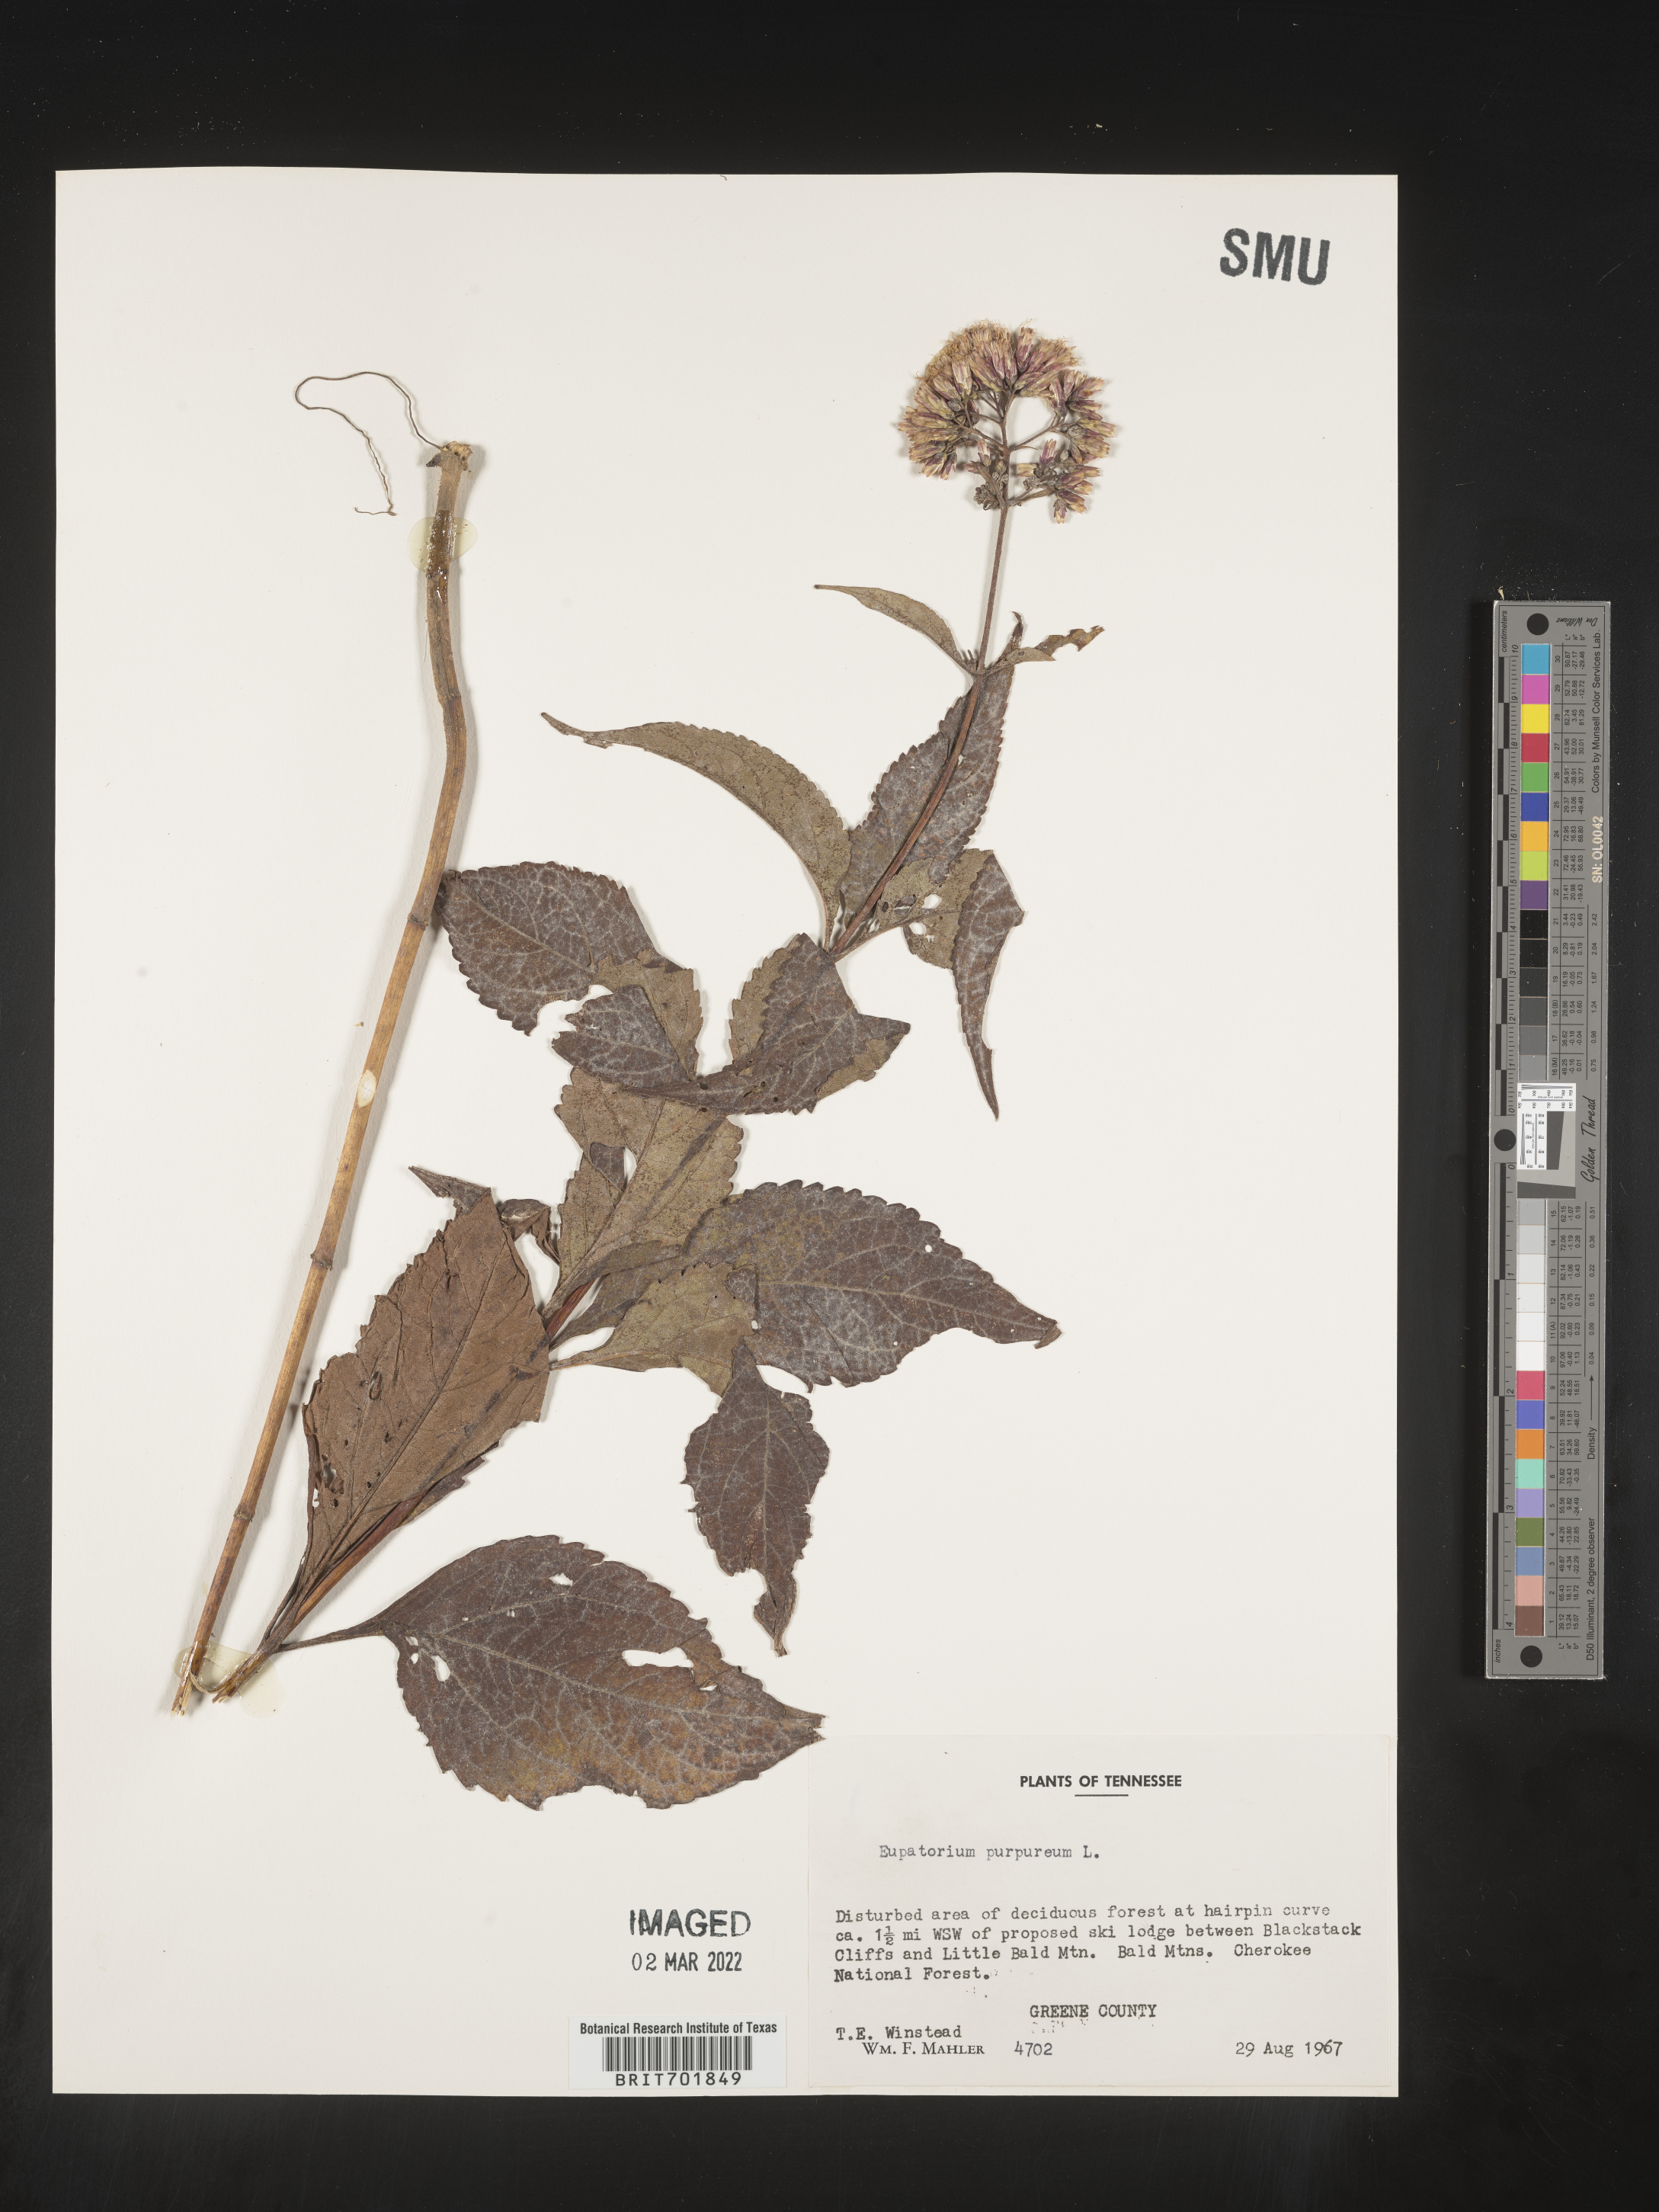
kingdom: Plantae
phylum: Tracheophyta
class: Magnoliopsida
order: Asterales
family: Asteraceae
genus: Eupatorium
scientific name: Eupatorium quaternum
